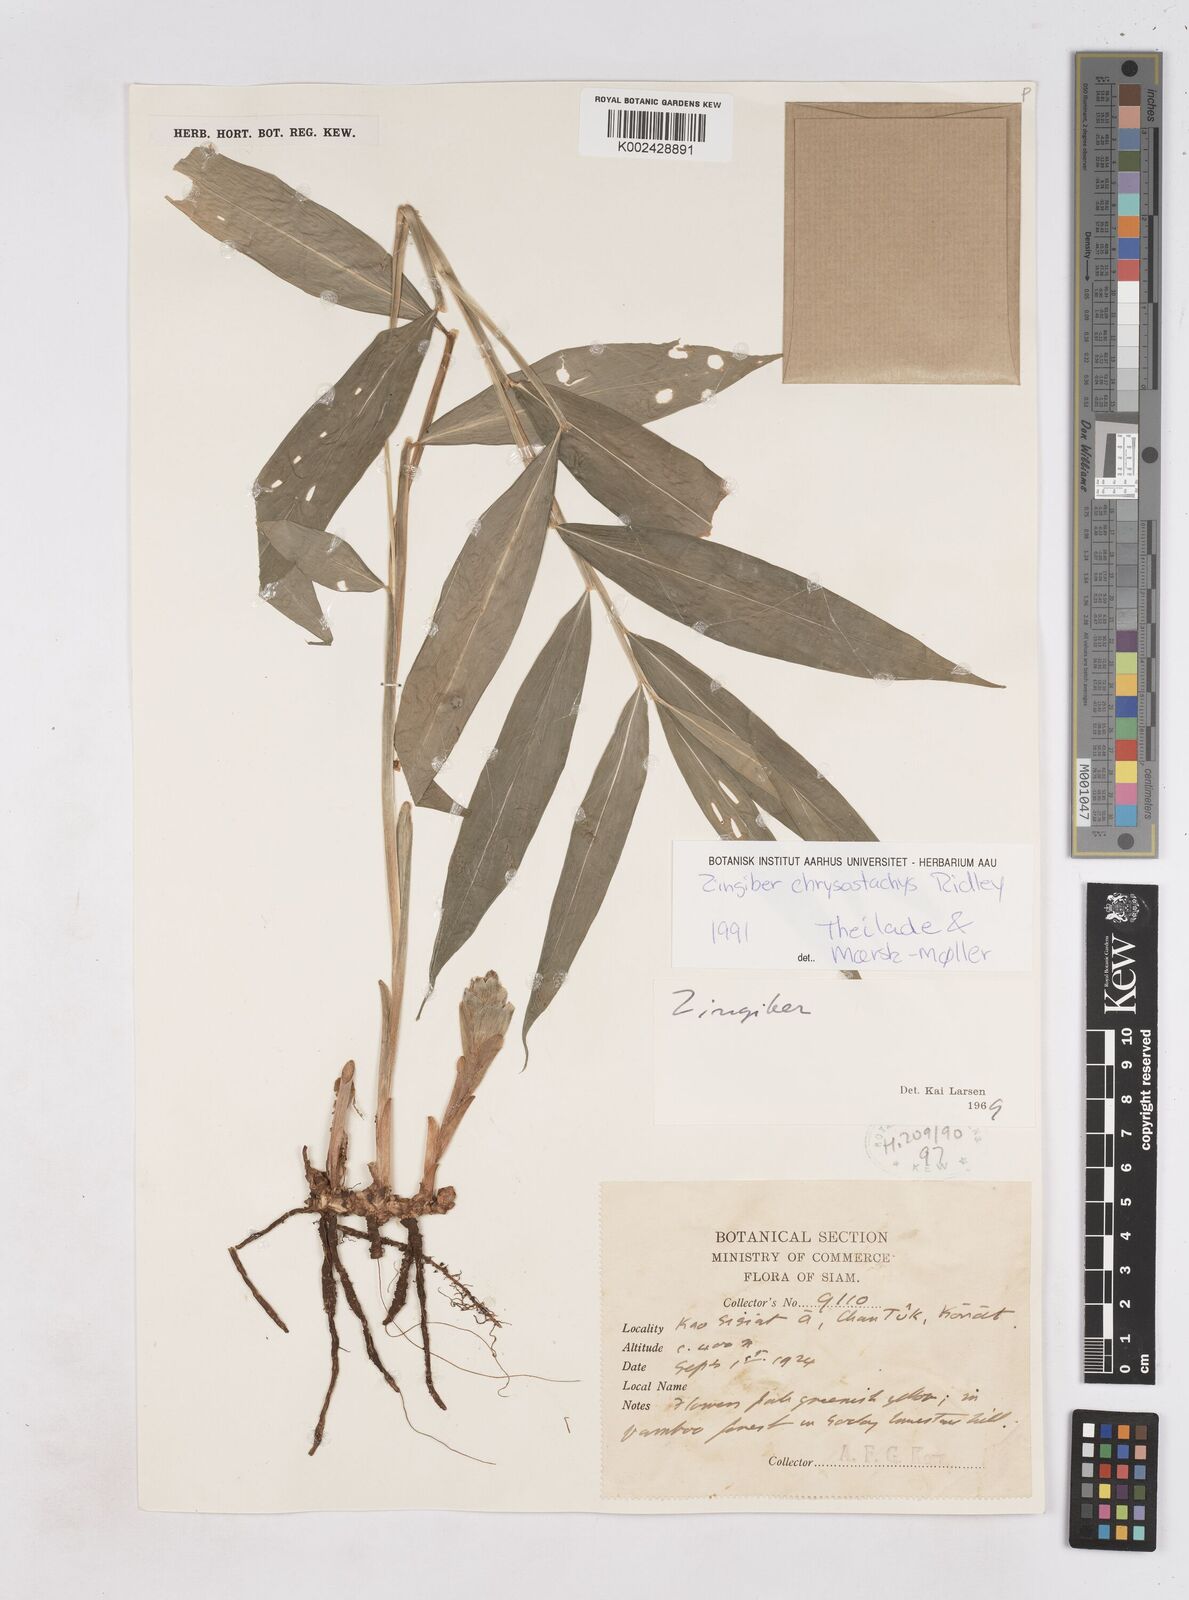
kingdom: Plantae
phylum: Tracheophyta
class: Liliopsida
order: Zingiberales
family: Zingiberaceae
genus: Zingiber
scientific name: Zingiber chrysostachys
